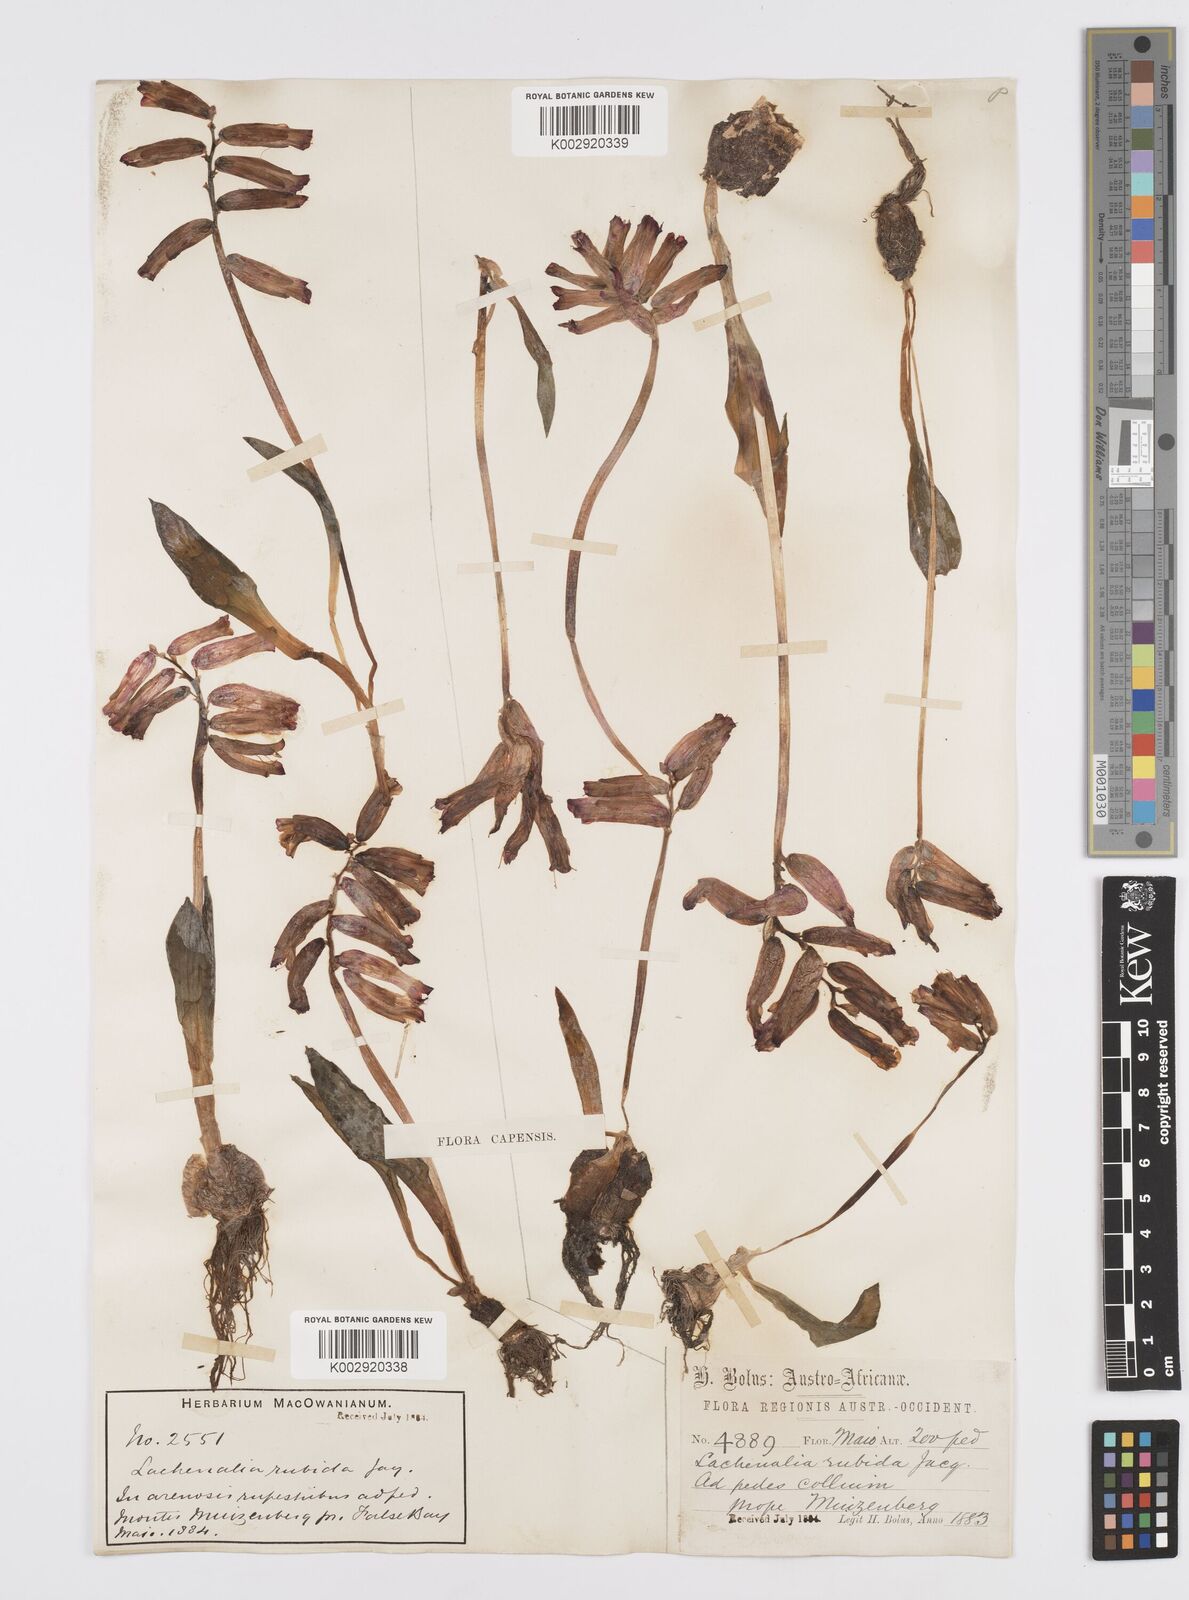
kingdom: Plantae
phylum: Tracheophyta
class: Liliopsida
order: Asparagales
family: Asparagaceae
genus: Lachenalia
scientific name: Lachenalia punctata
